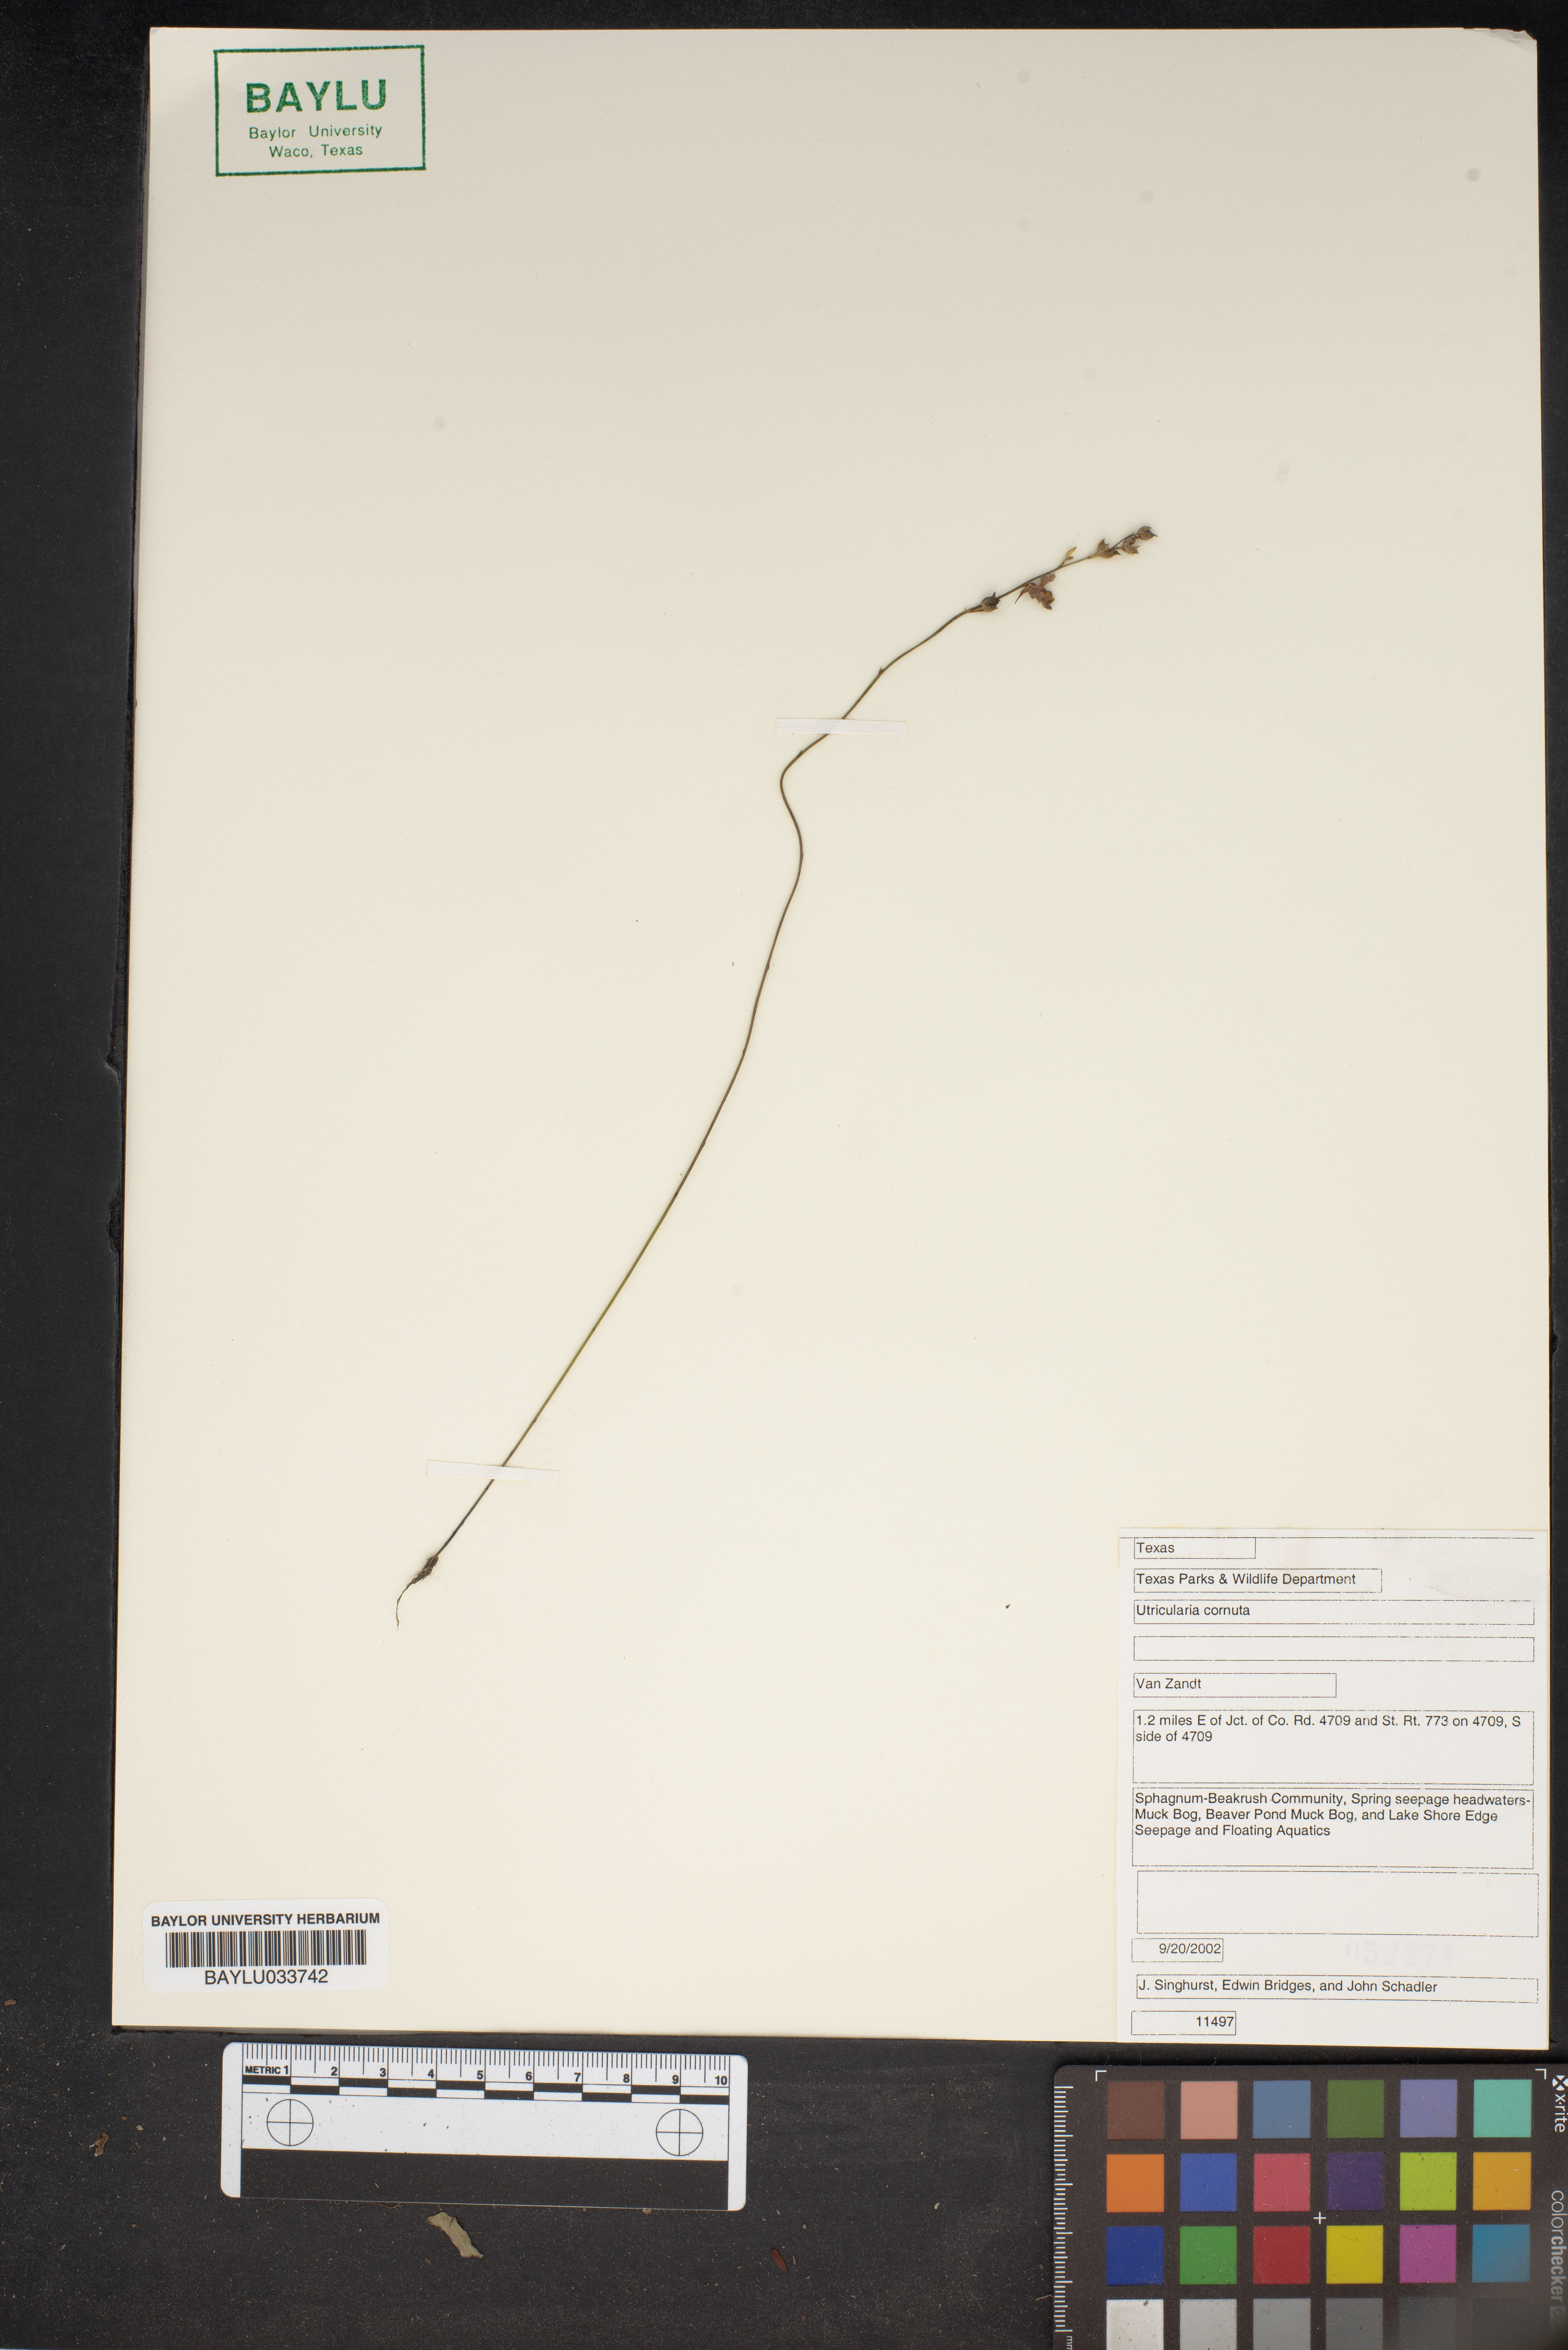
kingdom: Plantae
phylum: Tracheophyta
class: Magnoliopsida
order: Lamiales
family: Lentibulariaceae
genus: Utricularia
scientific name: Utricularia cornuta
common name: Horned bladderwort
